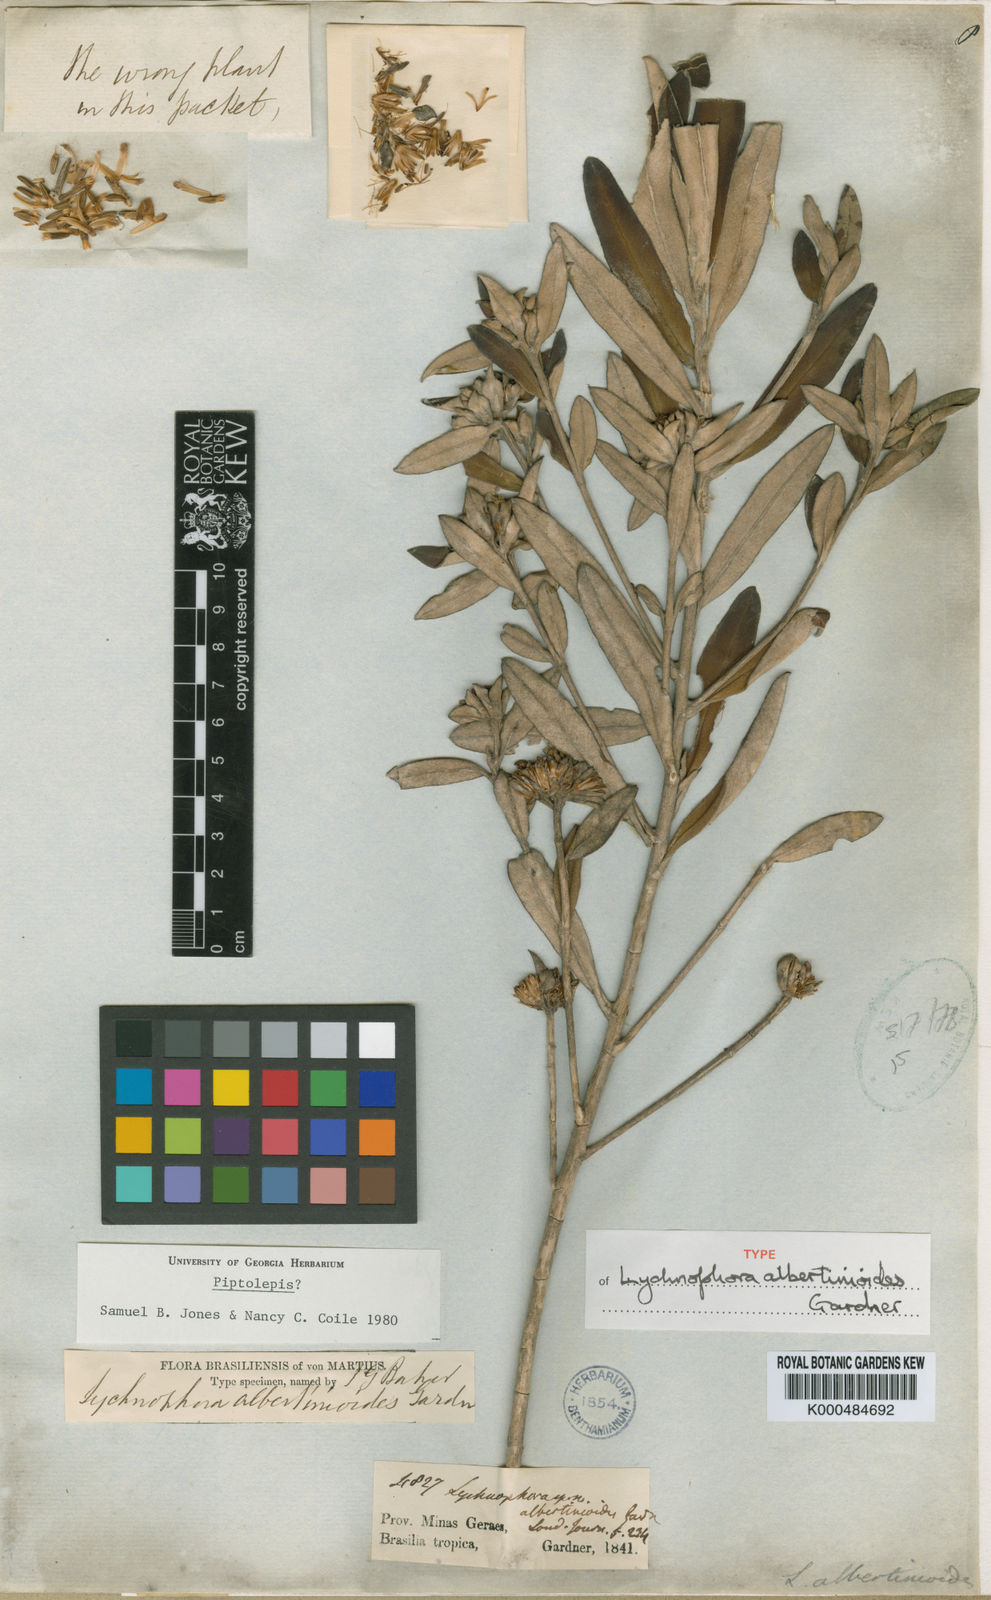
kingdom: Plantae
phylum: Tracheophyta
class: Magnoliopsida
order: Asterales
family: Asteraceae
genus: Piptolepis
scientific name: Piptolepis
